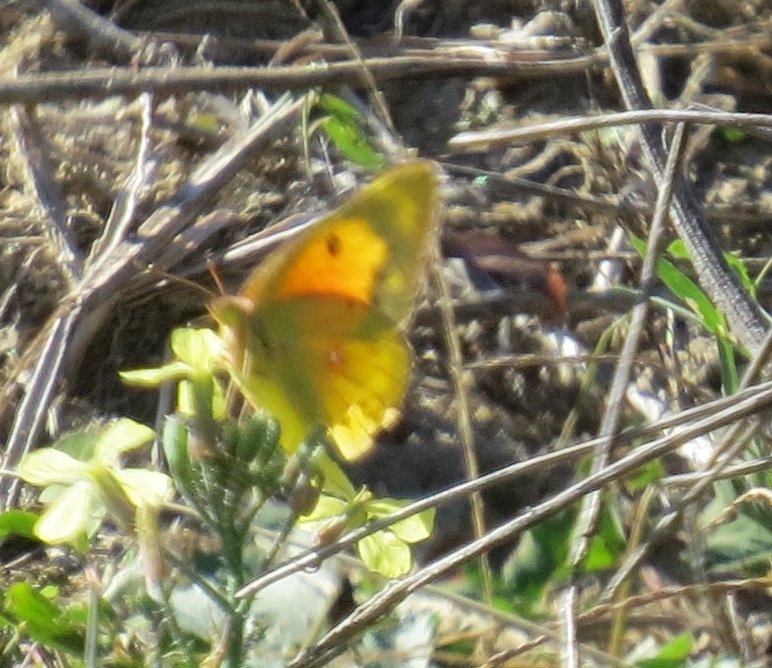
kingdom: Animalia
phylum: Arthropoda
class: Insecta
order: Lepidoptera
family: Pieridae
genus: Colias
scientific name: Colias eurytheme
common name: Orange Sulphur
